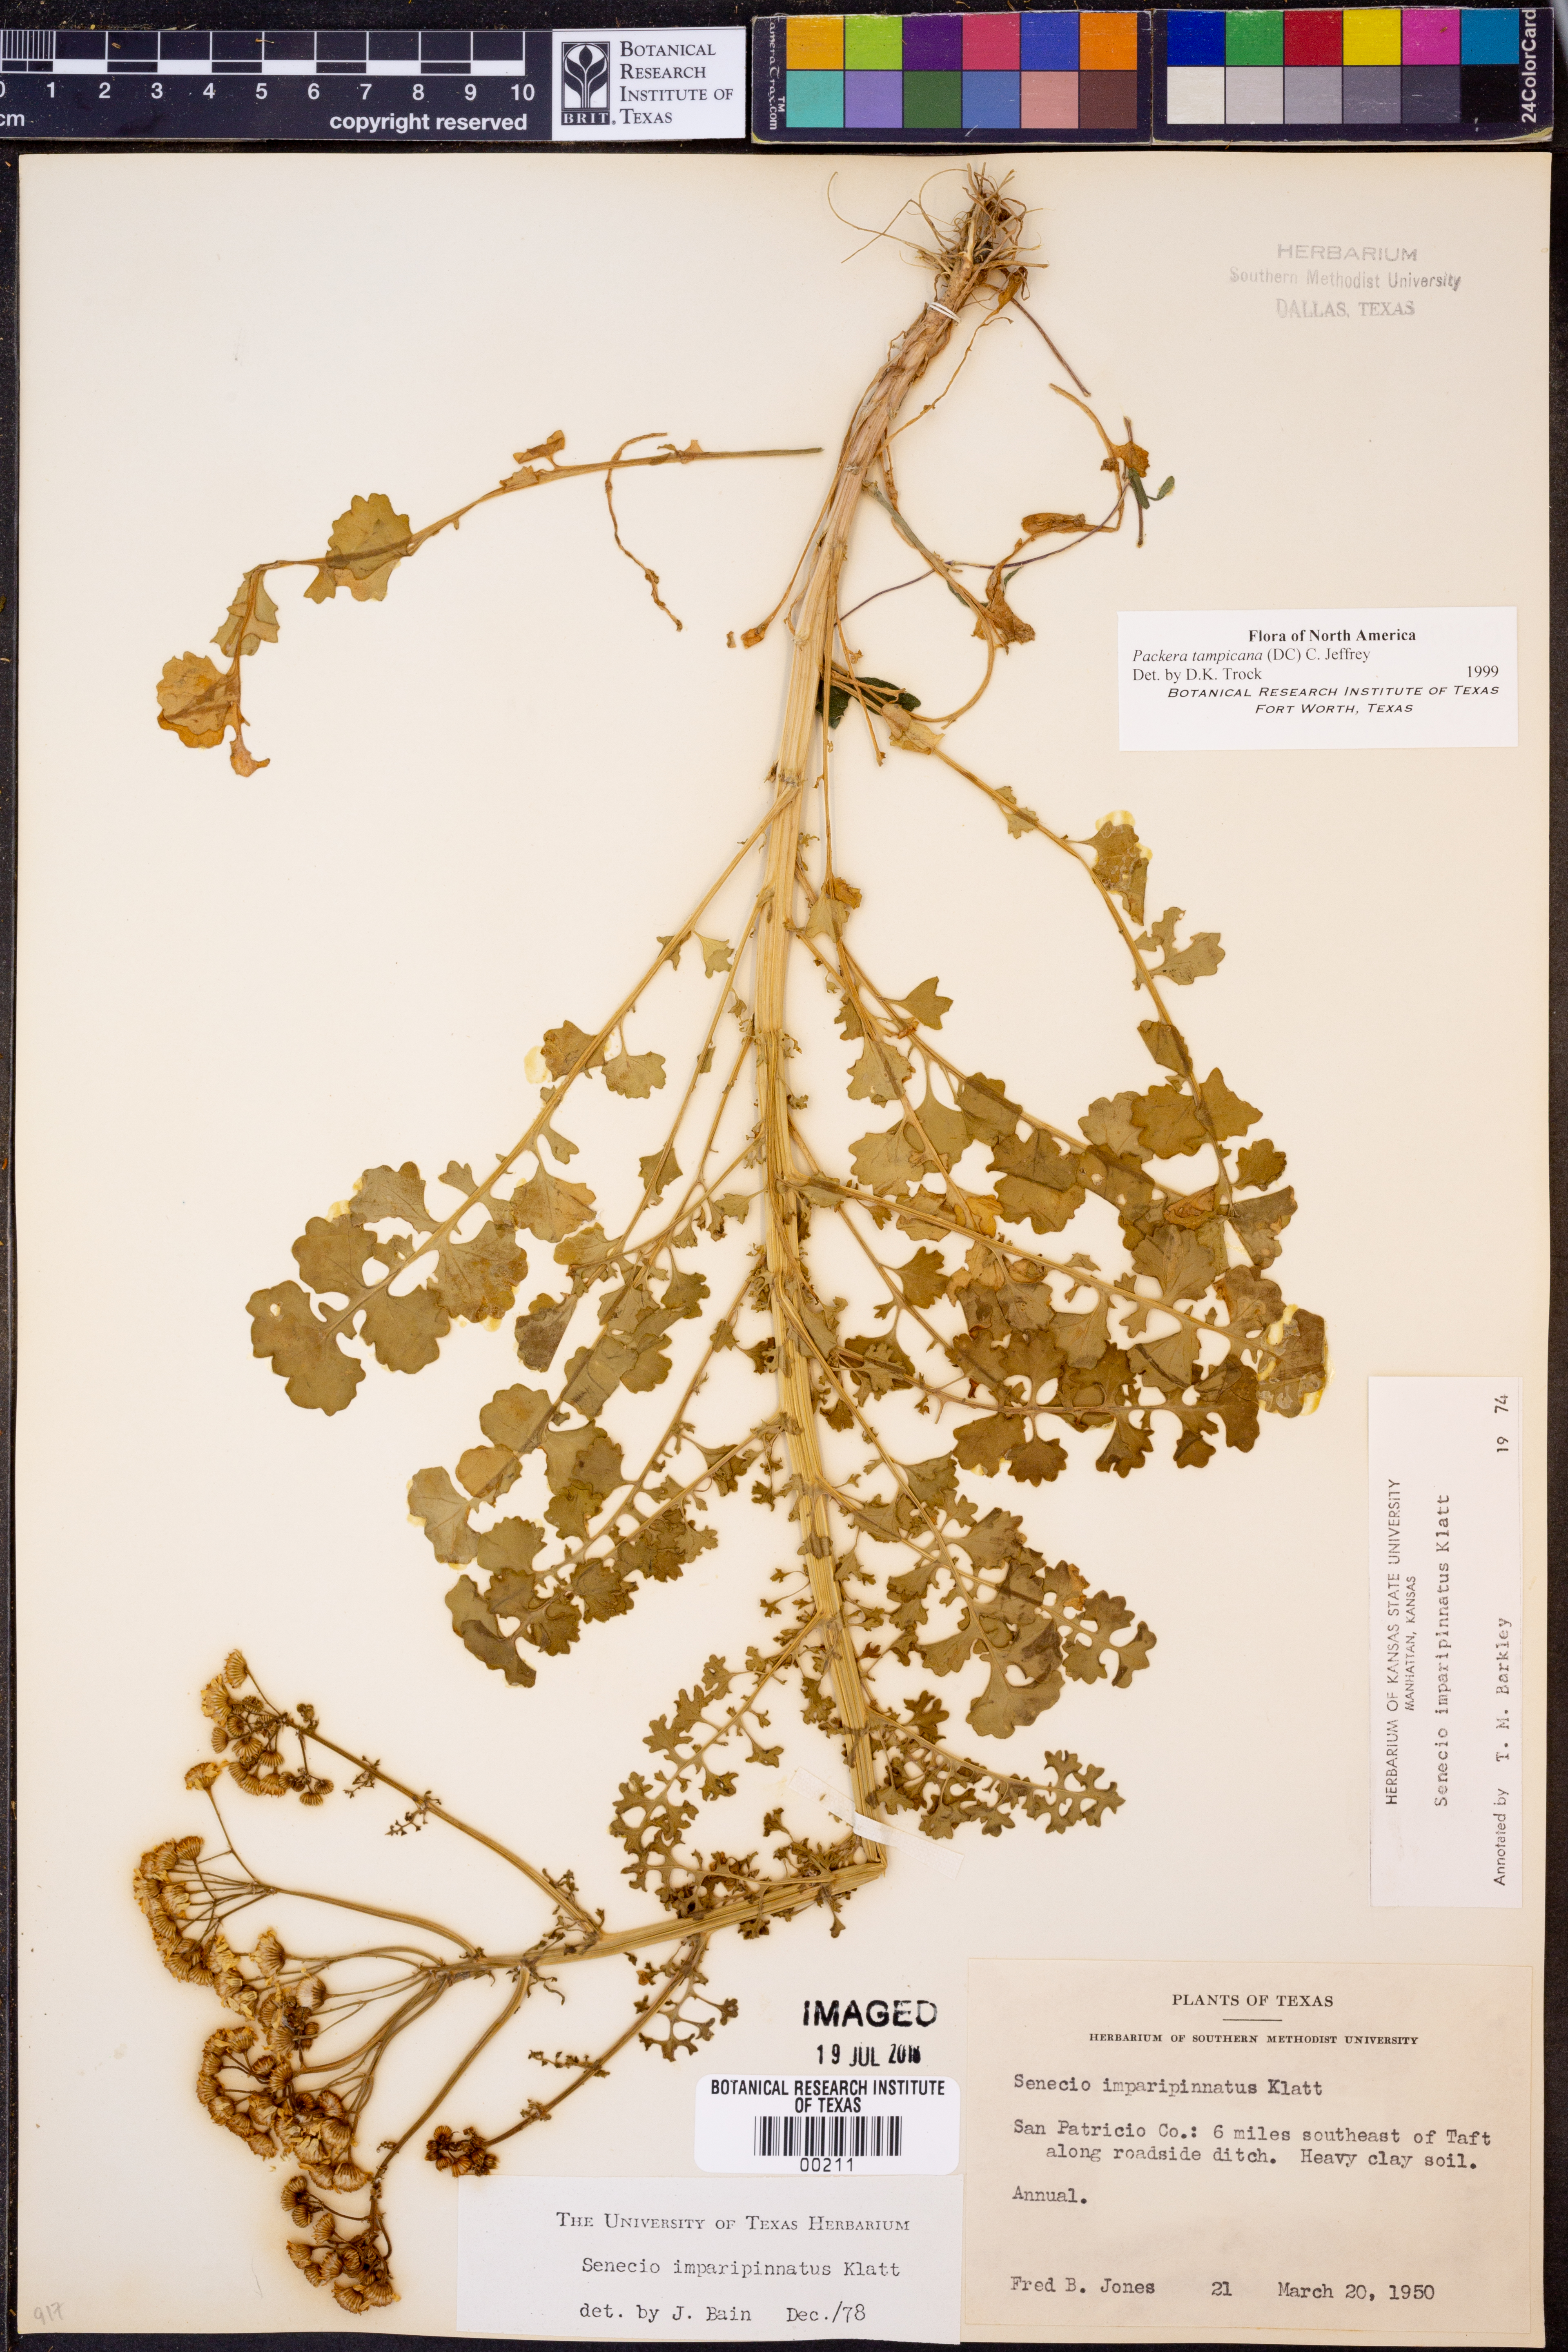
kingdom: Plantae
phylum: Tracheophyta
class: Magnoliopsida
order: Asterales
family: Asteraceae
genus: Packera
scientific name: Packera tampicana
